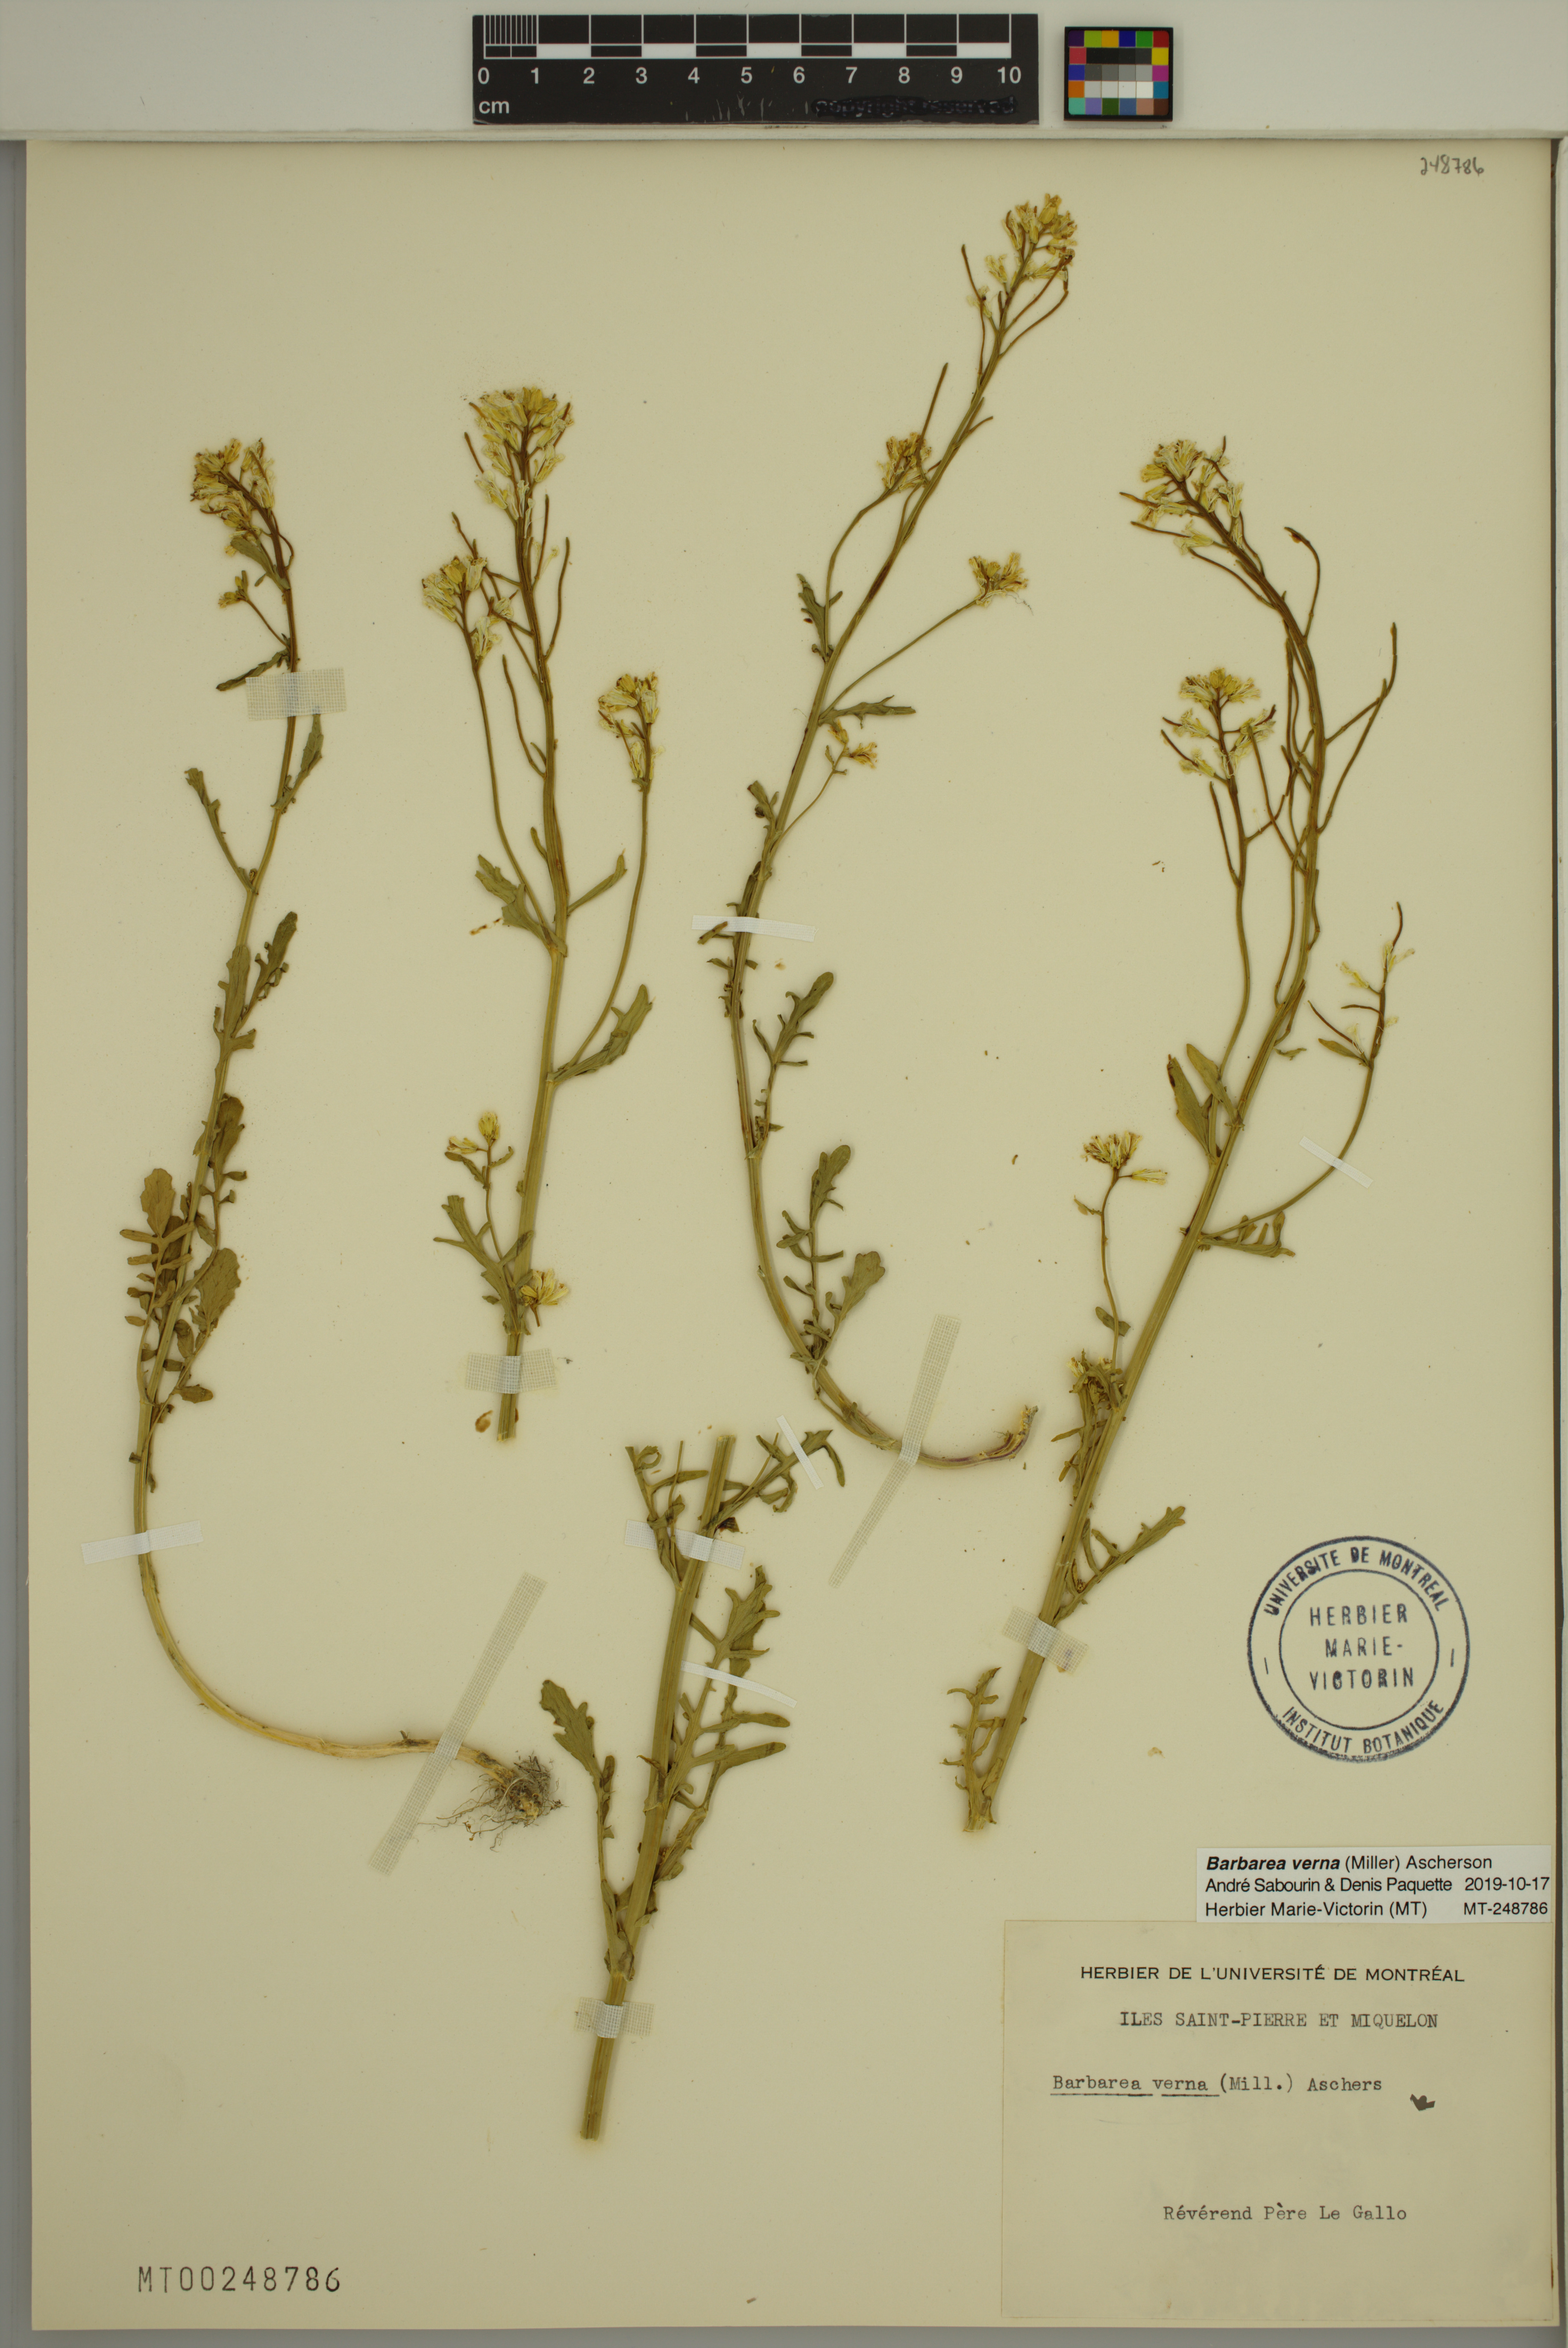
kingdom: Plantae
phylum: Tracheophyta
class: Magnoliopsida
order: Brassicales
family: Brassicaceae
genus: Barbarea
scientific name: Barbarea verna
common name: American cress
